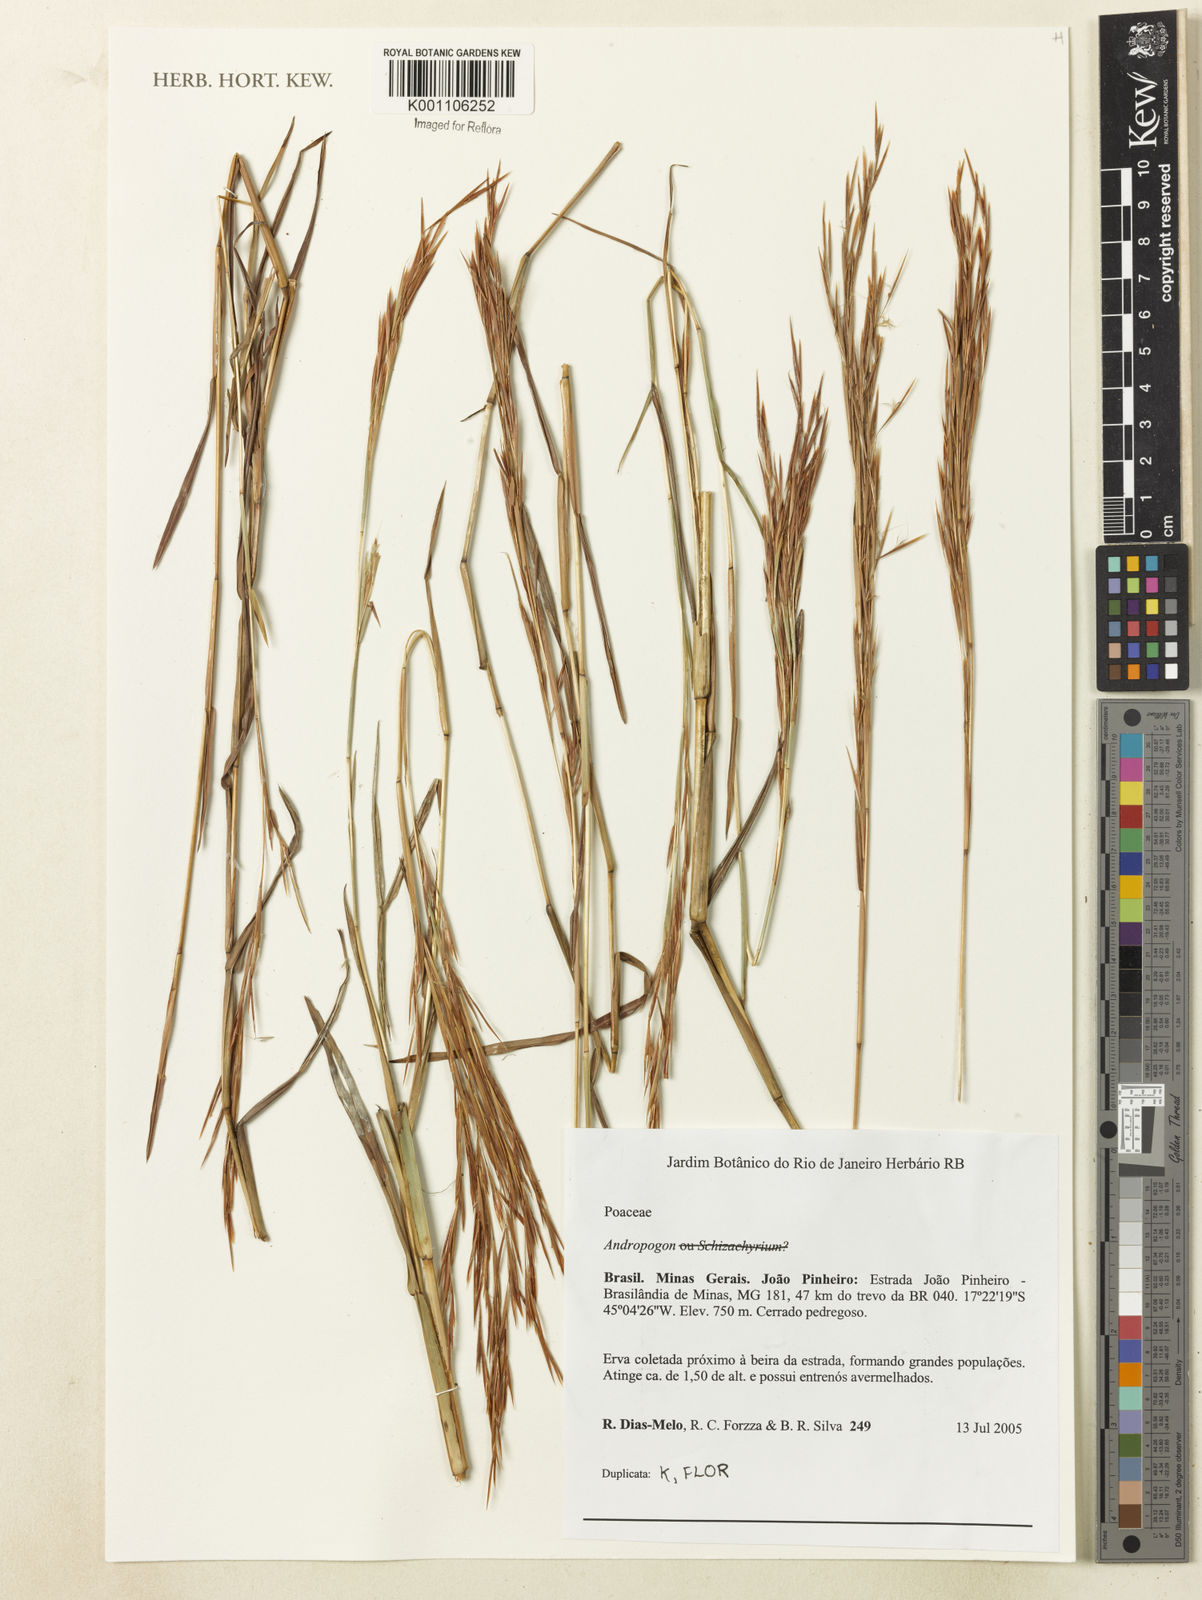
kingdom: Plantae
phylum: Tracheophyta
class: Liliopsida
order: Poales
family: Poaceae
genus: Andropogon
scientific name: Andropogon
